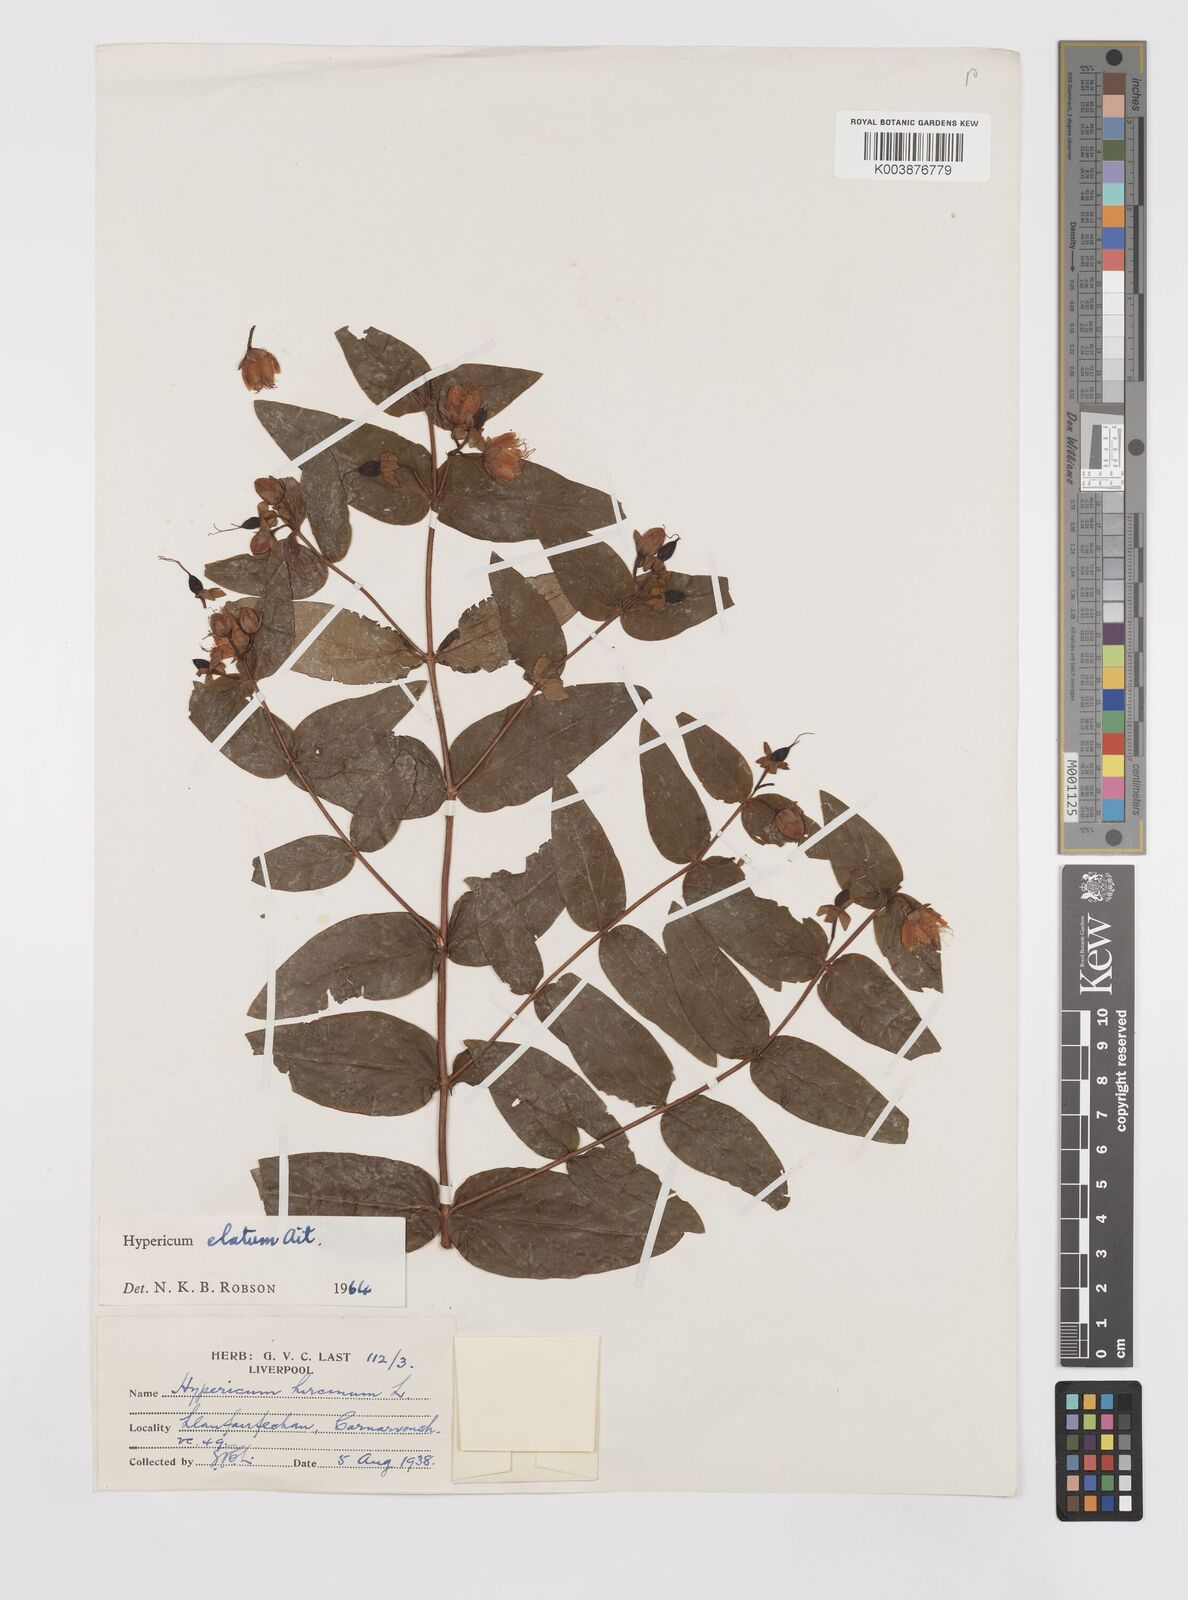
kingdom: Plantae
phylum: Tracheophyta
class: Magnoliopsida
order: Malpighiales
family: Hypericaceae
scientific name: Hypericaceae
